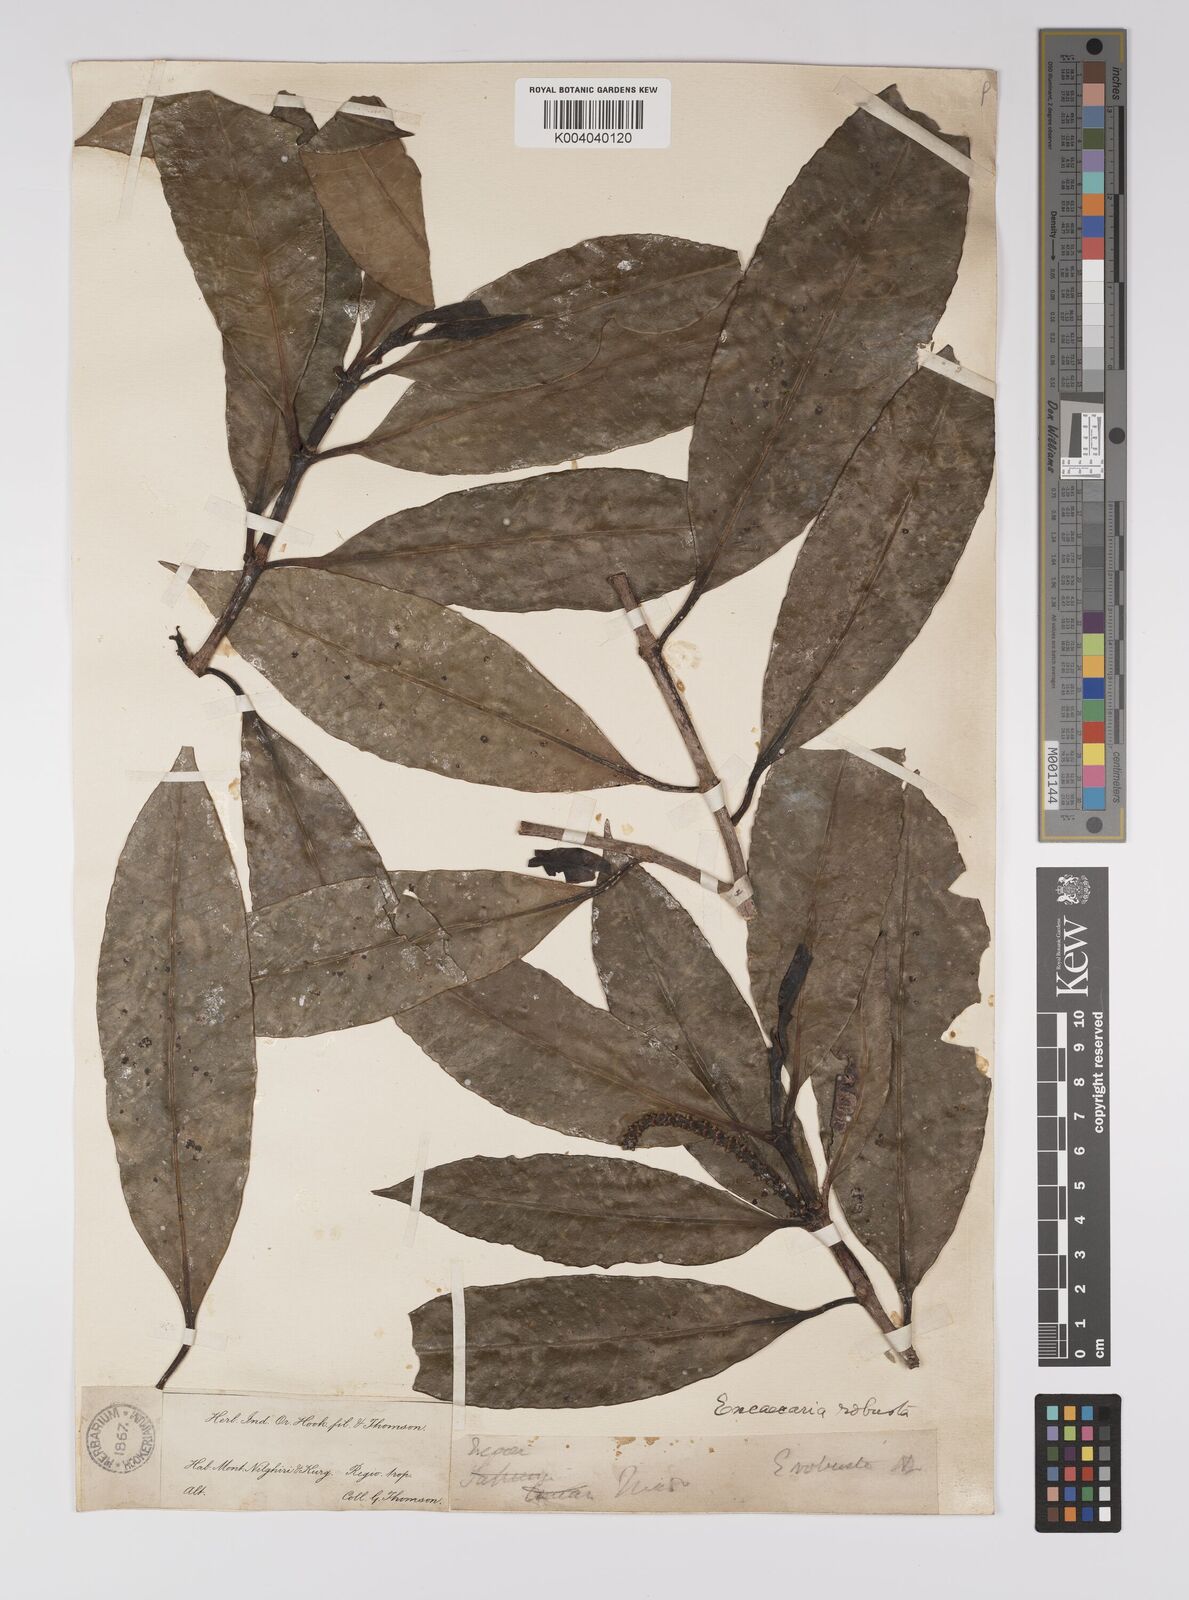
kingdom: Plantae
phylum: Tracheophyta
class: Magnoliopsida
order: Malpighiales
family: Euphorbiaceae
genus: Excoecaria
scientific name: Excoecaria oppositifolia
